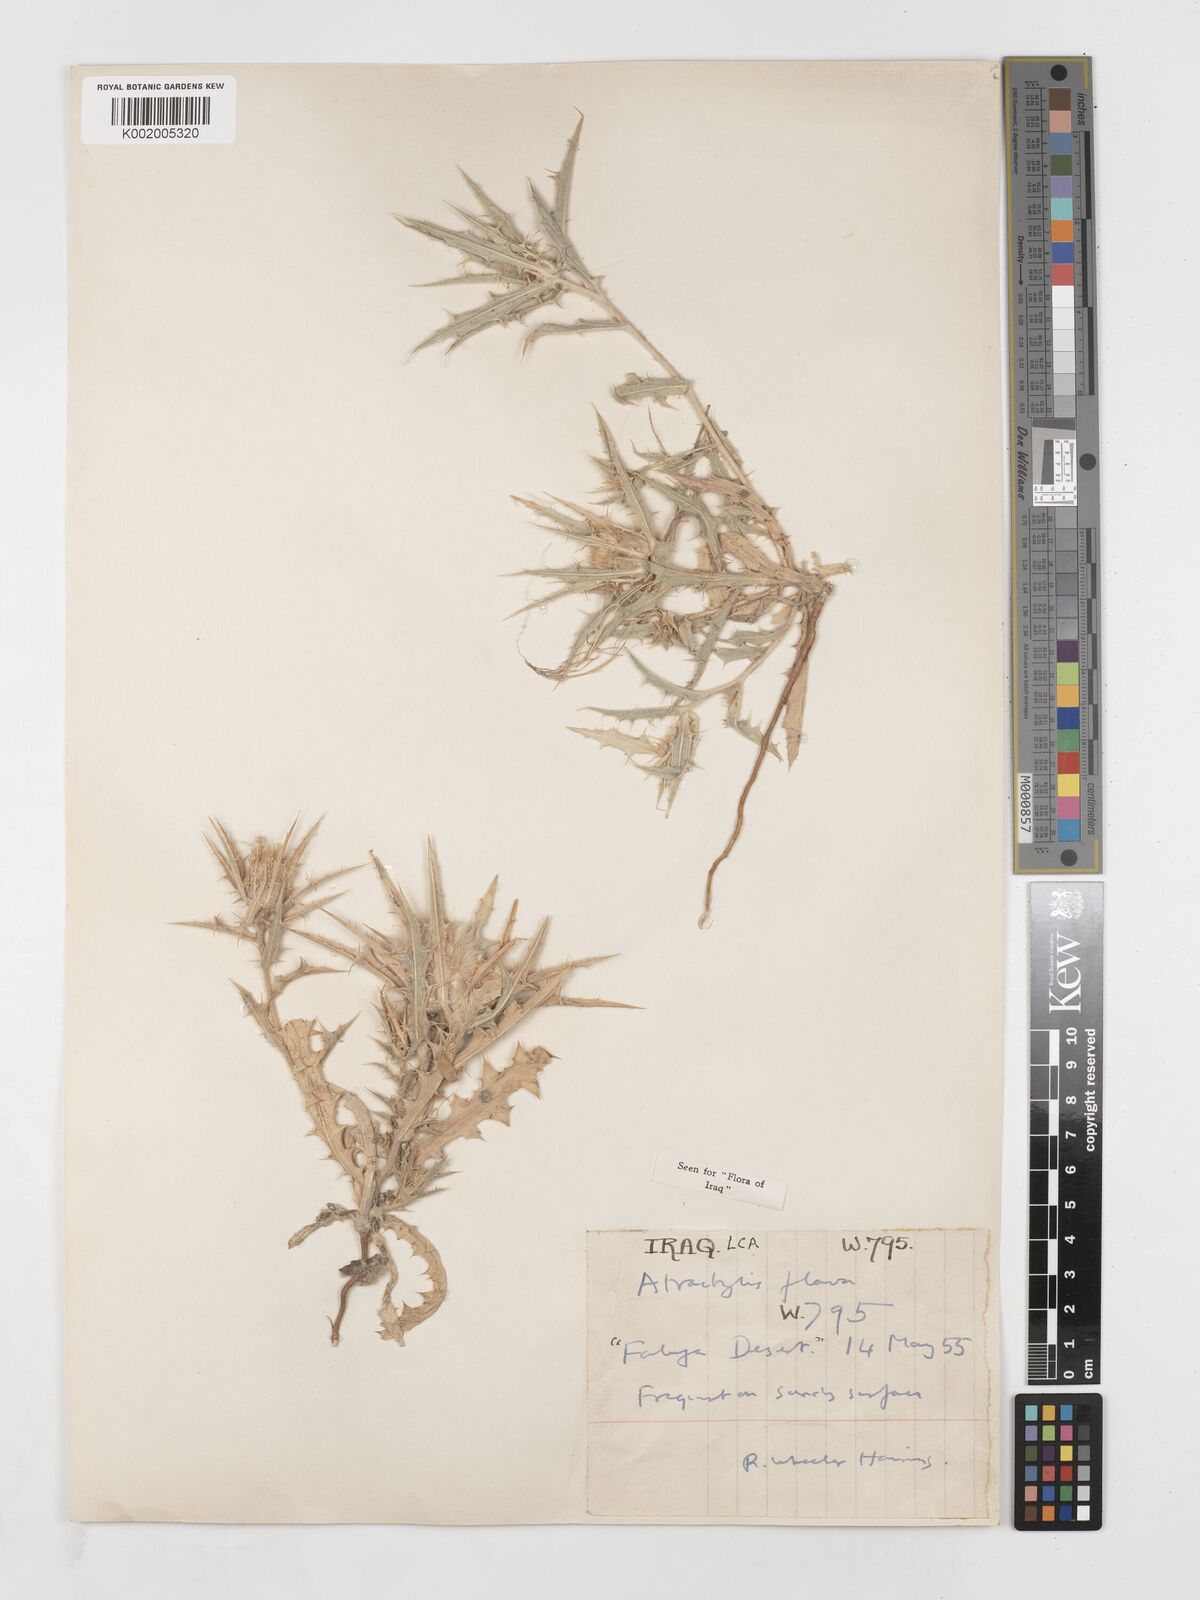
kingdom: Plantae
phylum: Tracheophyta
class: Magnoliopsida
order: Asterales
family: Asteraceae
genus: Atractylis
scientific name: Atractylis carduus
